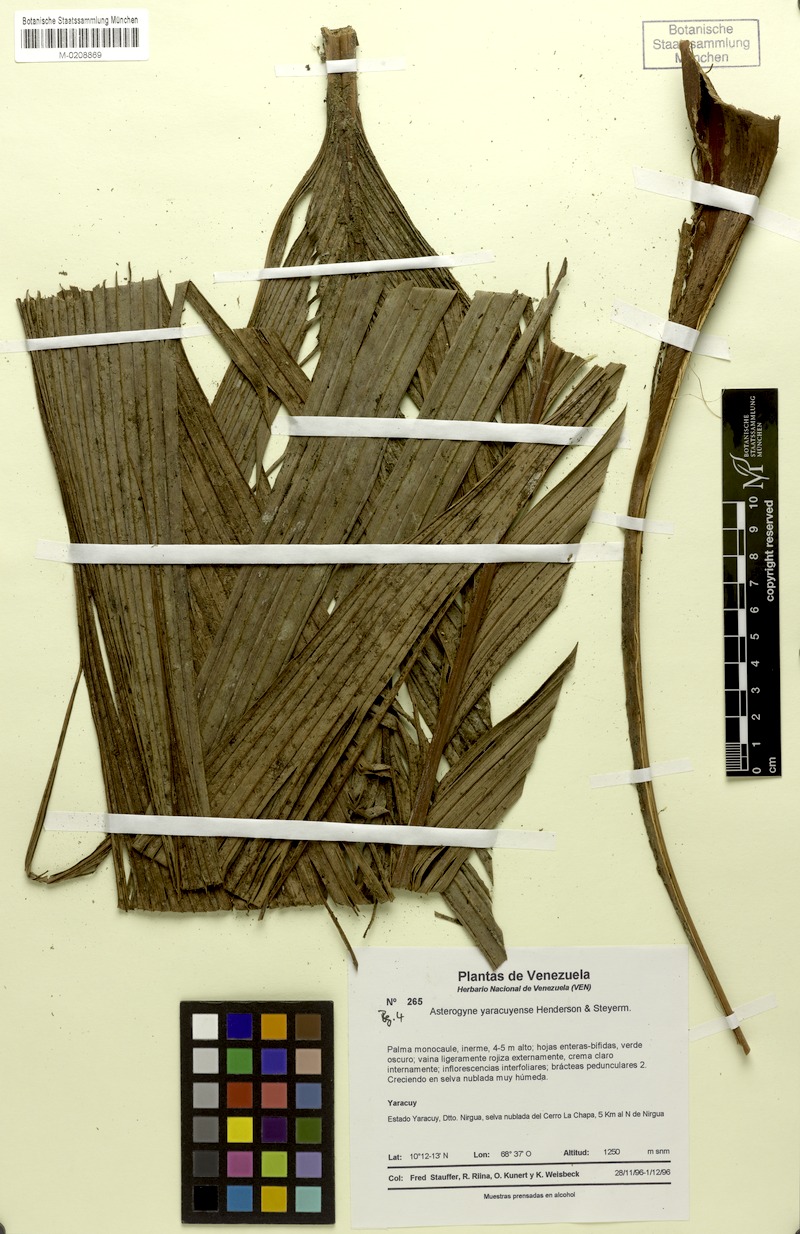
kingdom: Plantae
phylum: Tracheophyta
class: Liliopsida
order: Arecales
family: Arecaceae
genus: Asterogyne
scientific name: Asterogyne yaracuyense
